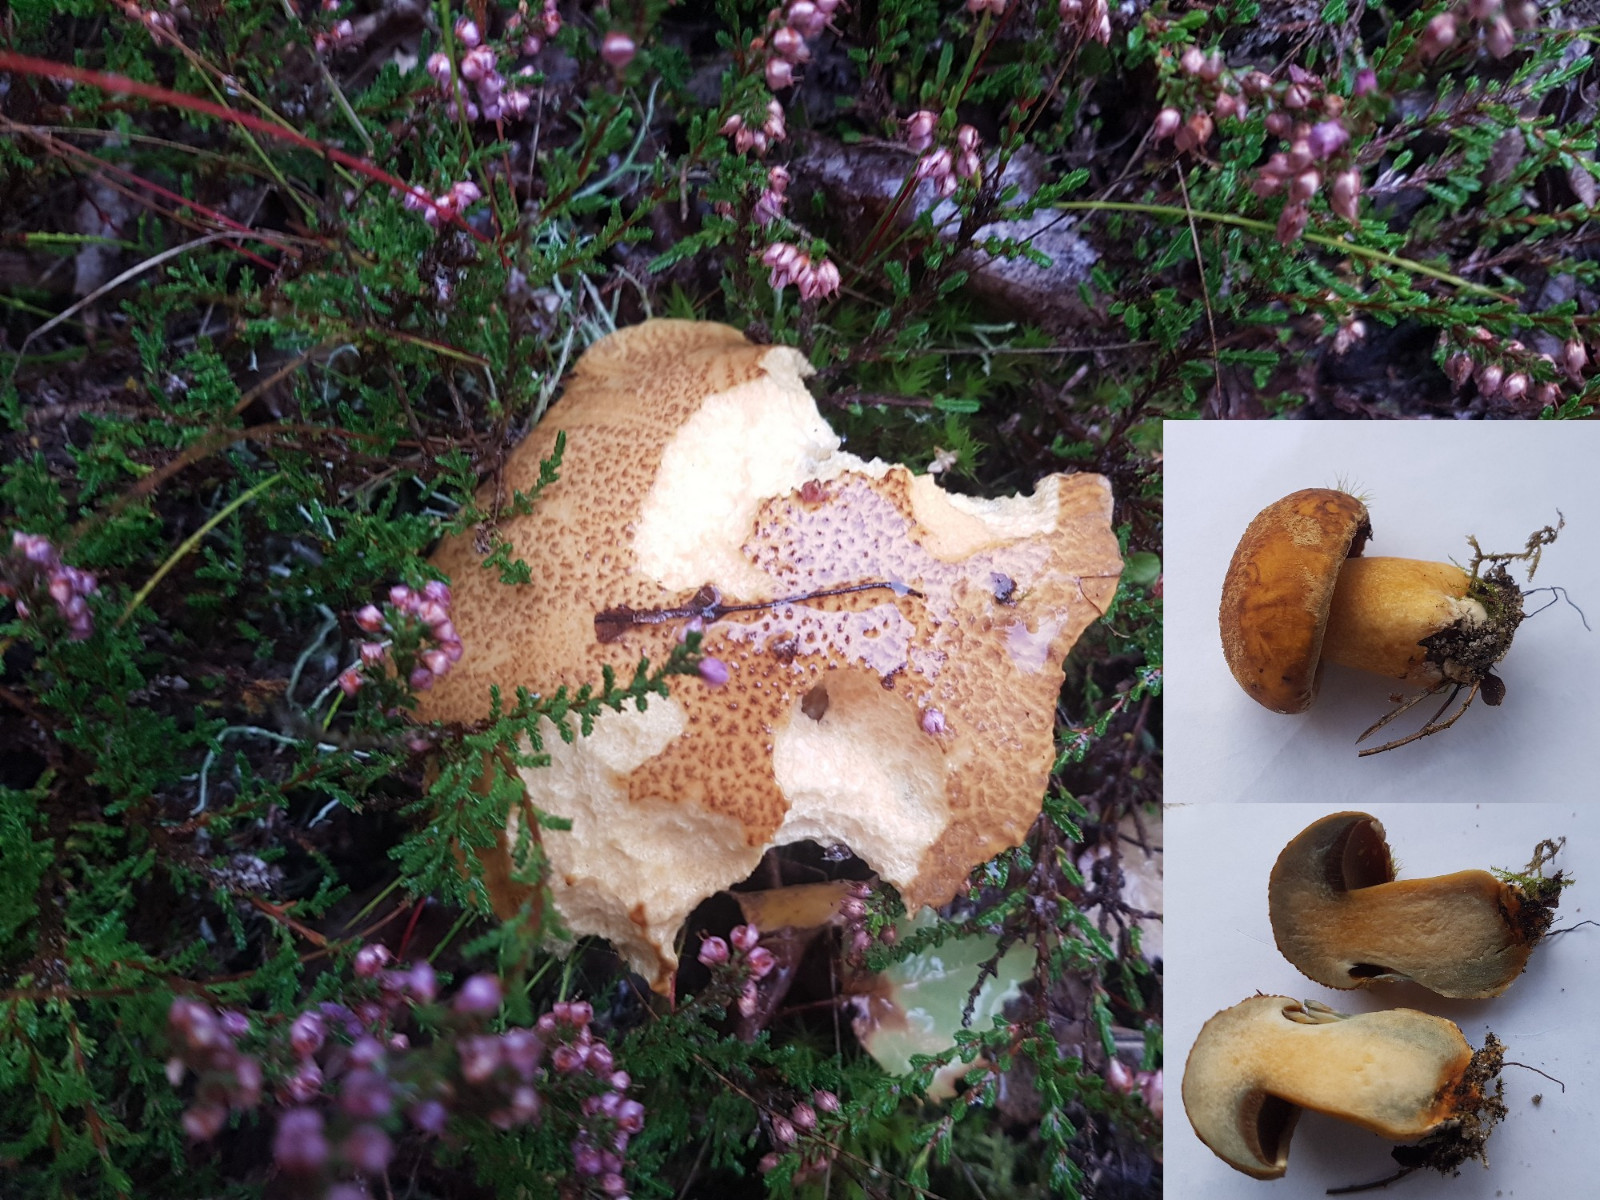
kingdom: Fungi
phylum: Basidiomycota
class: Agaricomycetes
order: Boletales
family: Suillaceae
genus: Suillus
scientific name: Suillus variegatus
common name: broget slimrørhat
